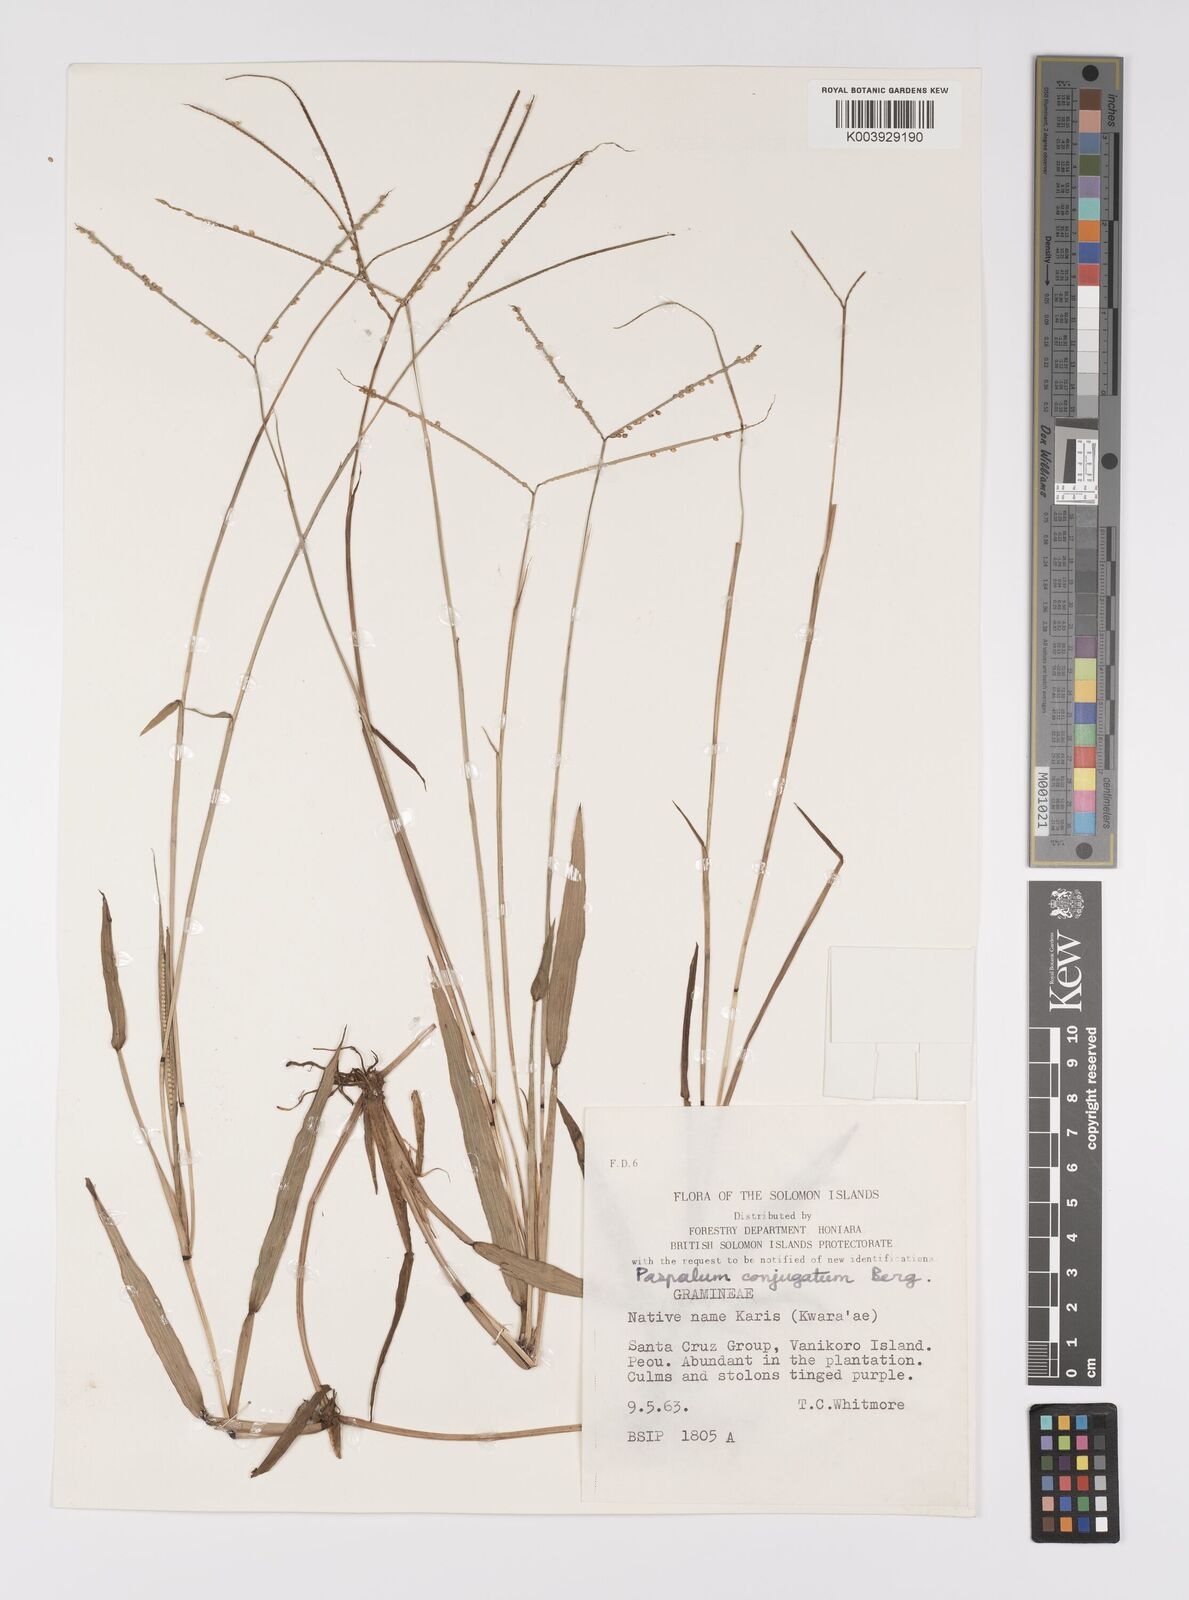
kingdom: Plantae
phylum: Tracheophyta
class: Liliopsida
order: Poales
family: Poaceae
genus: Paspalum
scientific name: Paspalum conjugatum
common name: Hilograss
